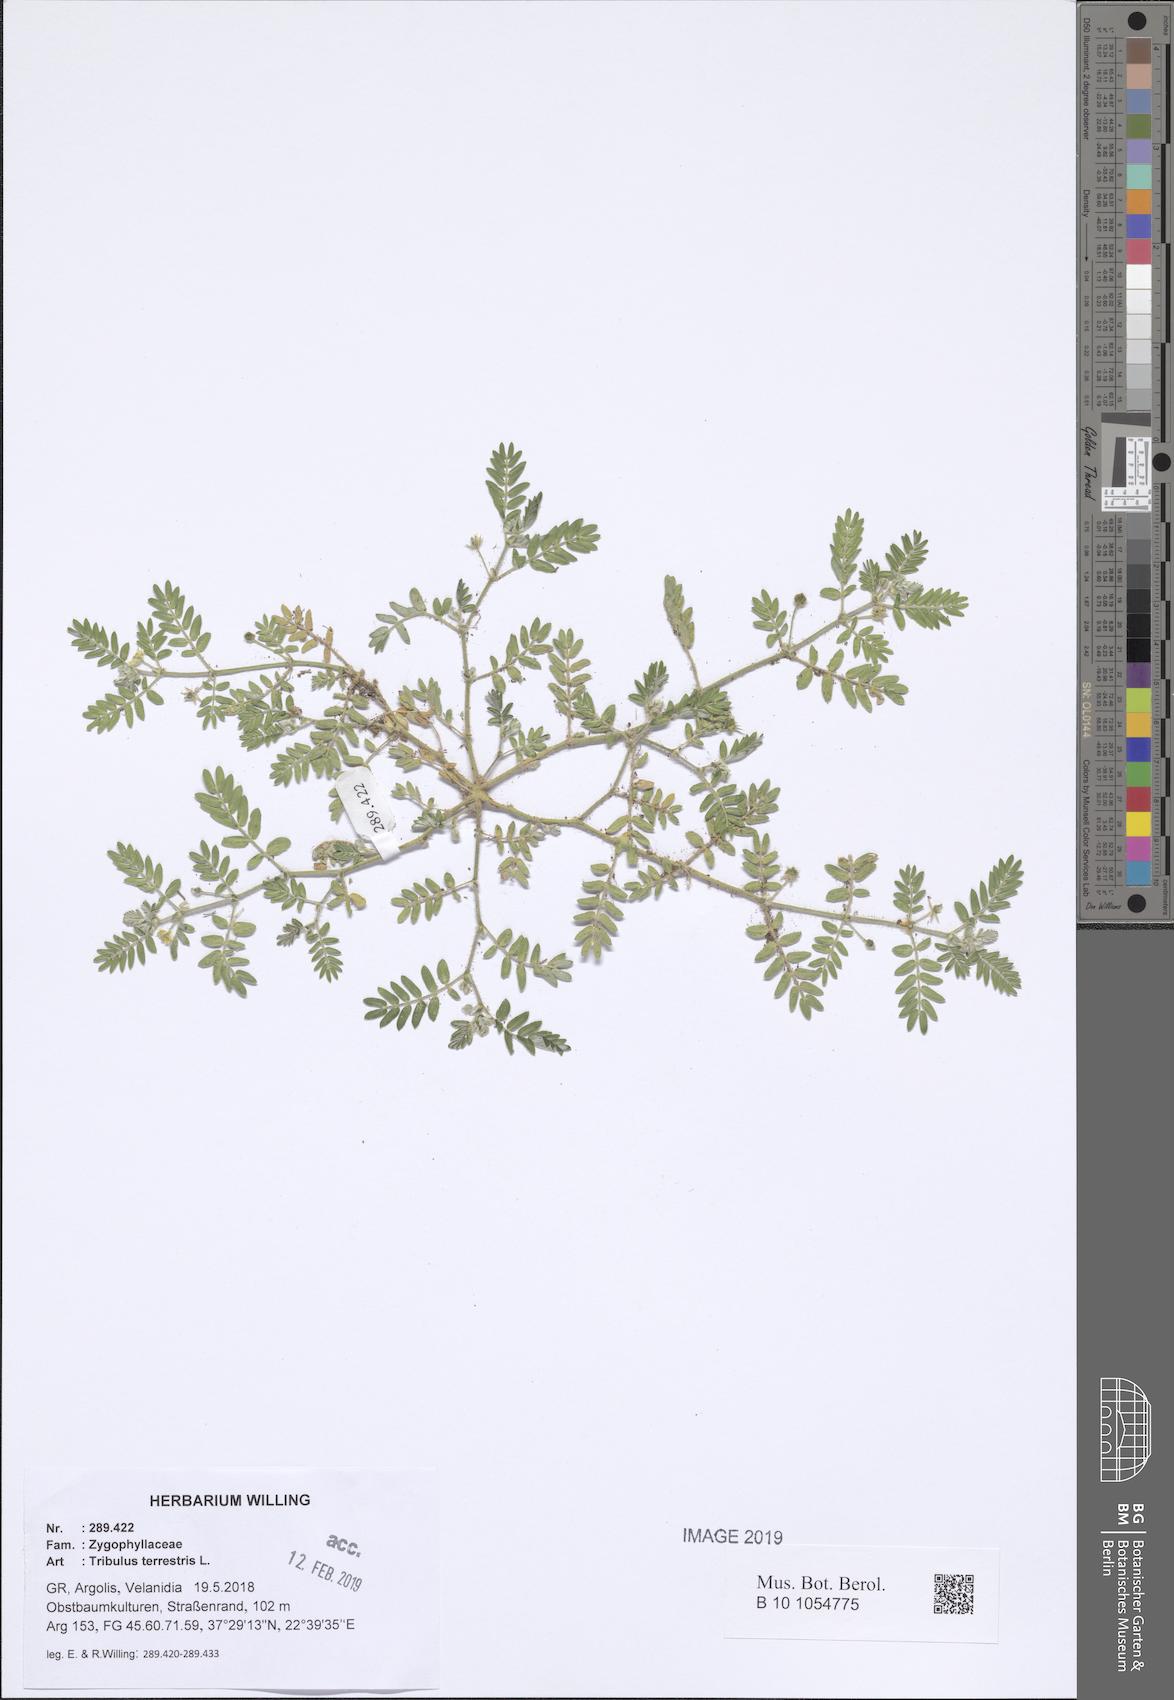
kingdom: Plantae
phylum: Tracheophyta
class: Magnoliopsida
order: Zygophyllales
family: Zygophyllaceae
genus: Tribulus
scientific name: Tribulus terrestris
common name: Puncturevine
